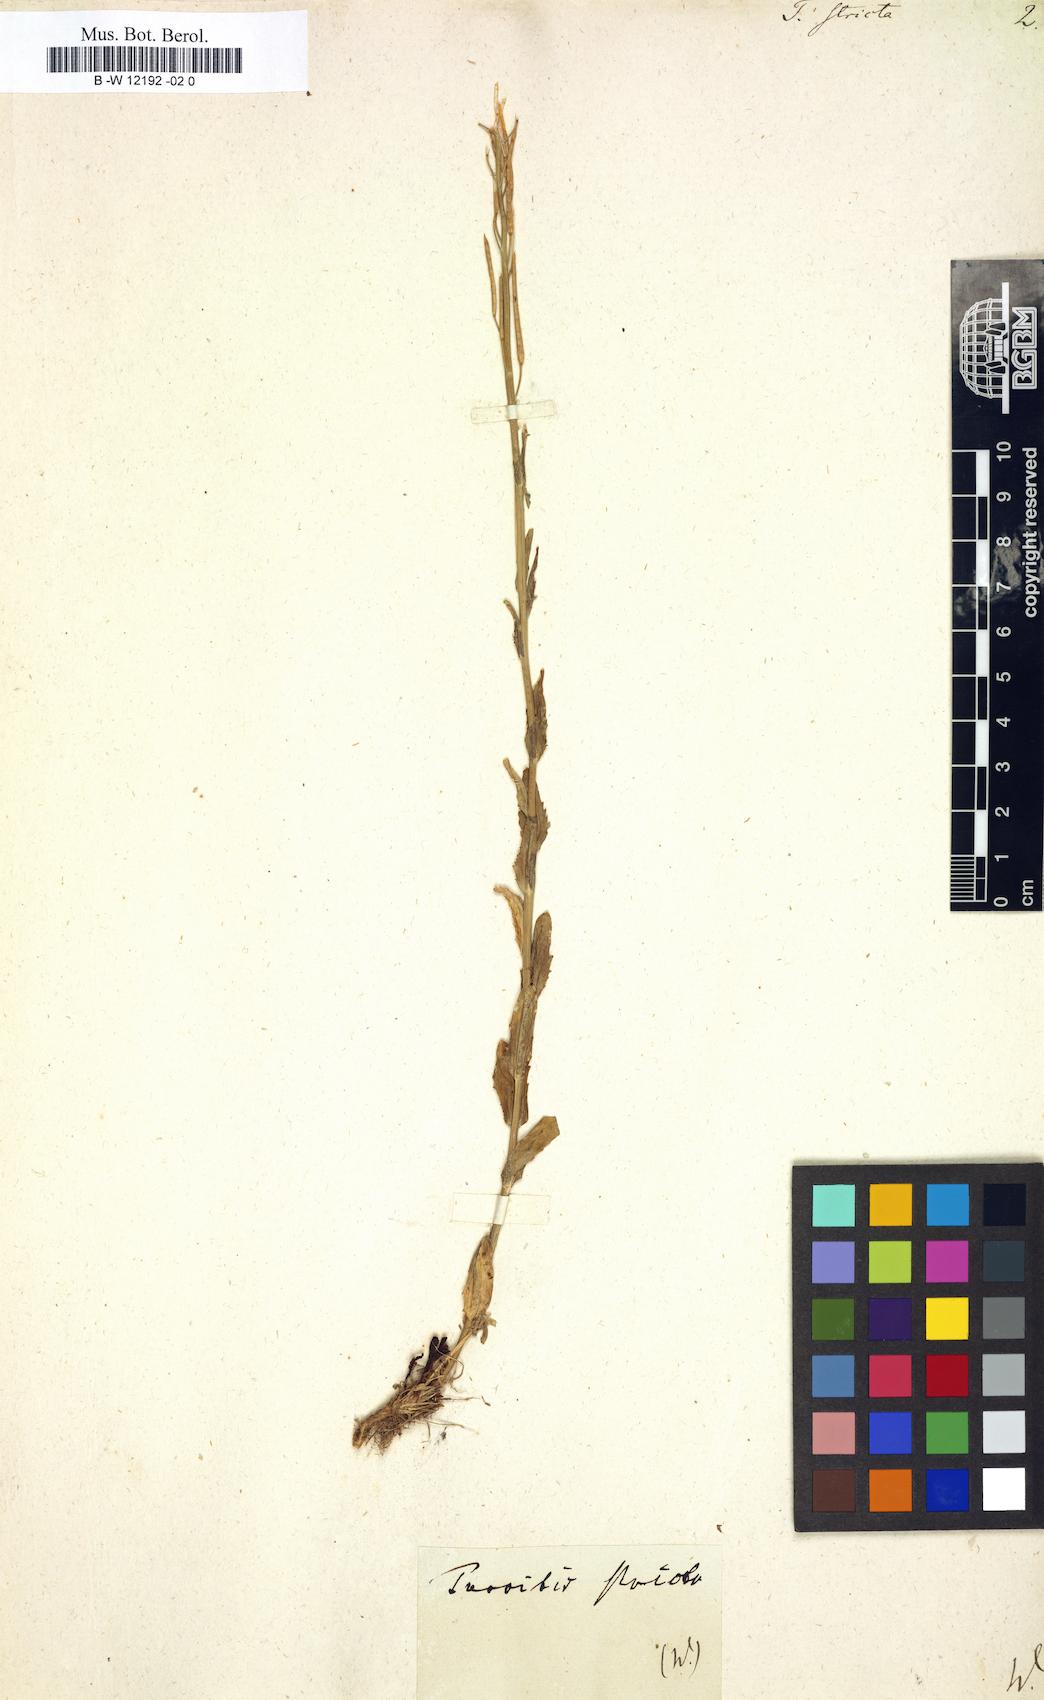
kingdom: Plantae
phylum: Tracheophyta
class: Magnoliopsida
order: Brassicales
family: Brassicaceae
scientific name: Brassicaceae
